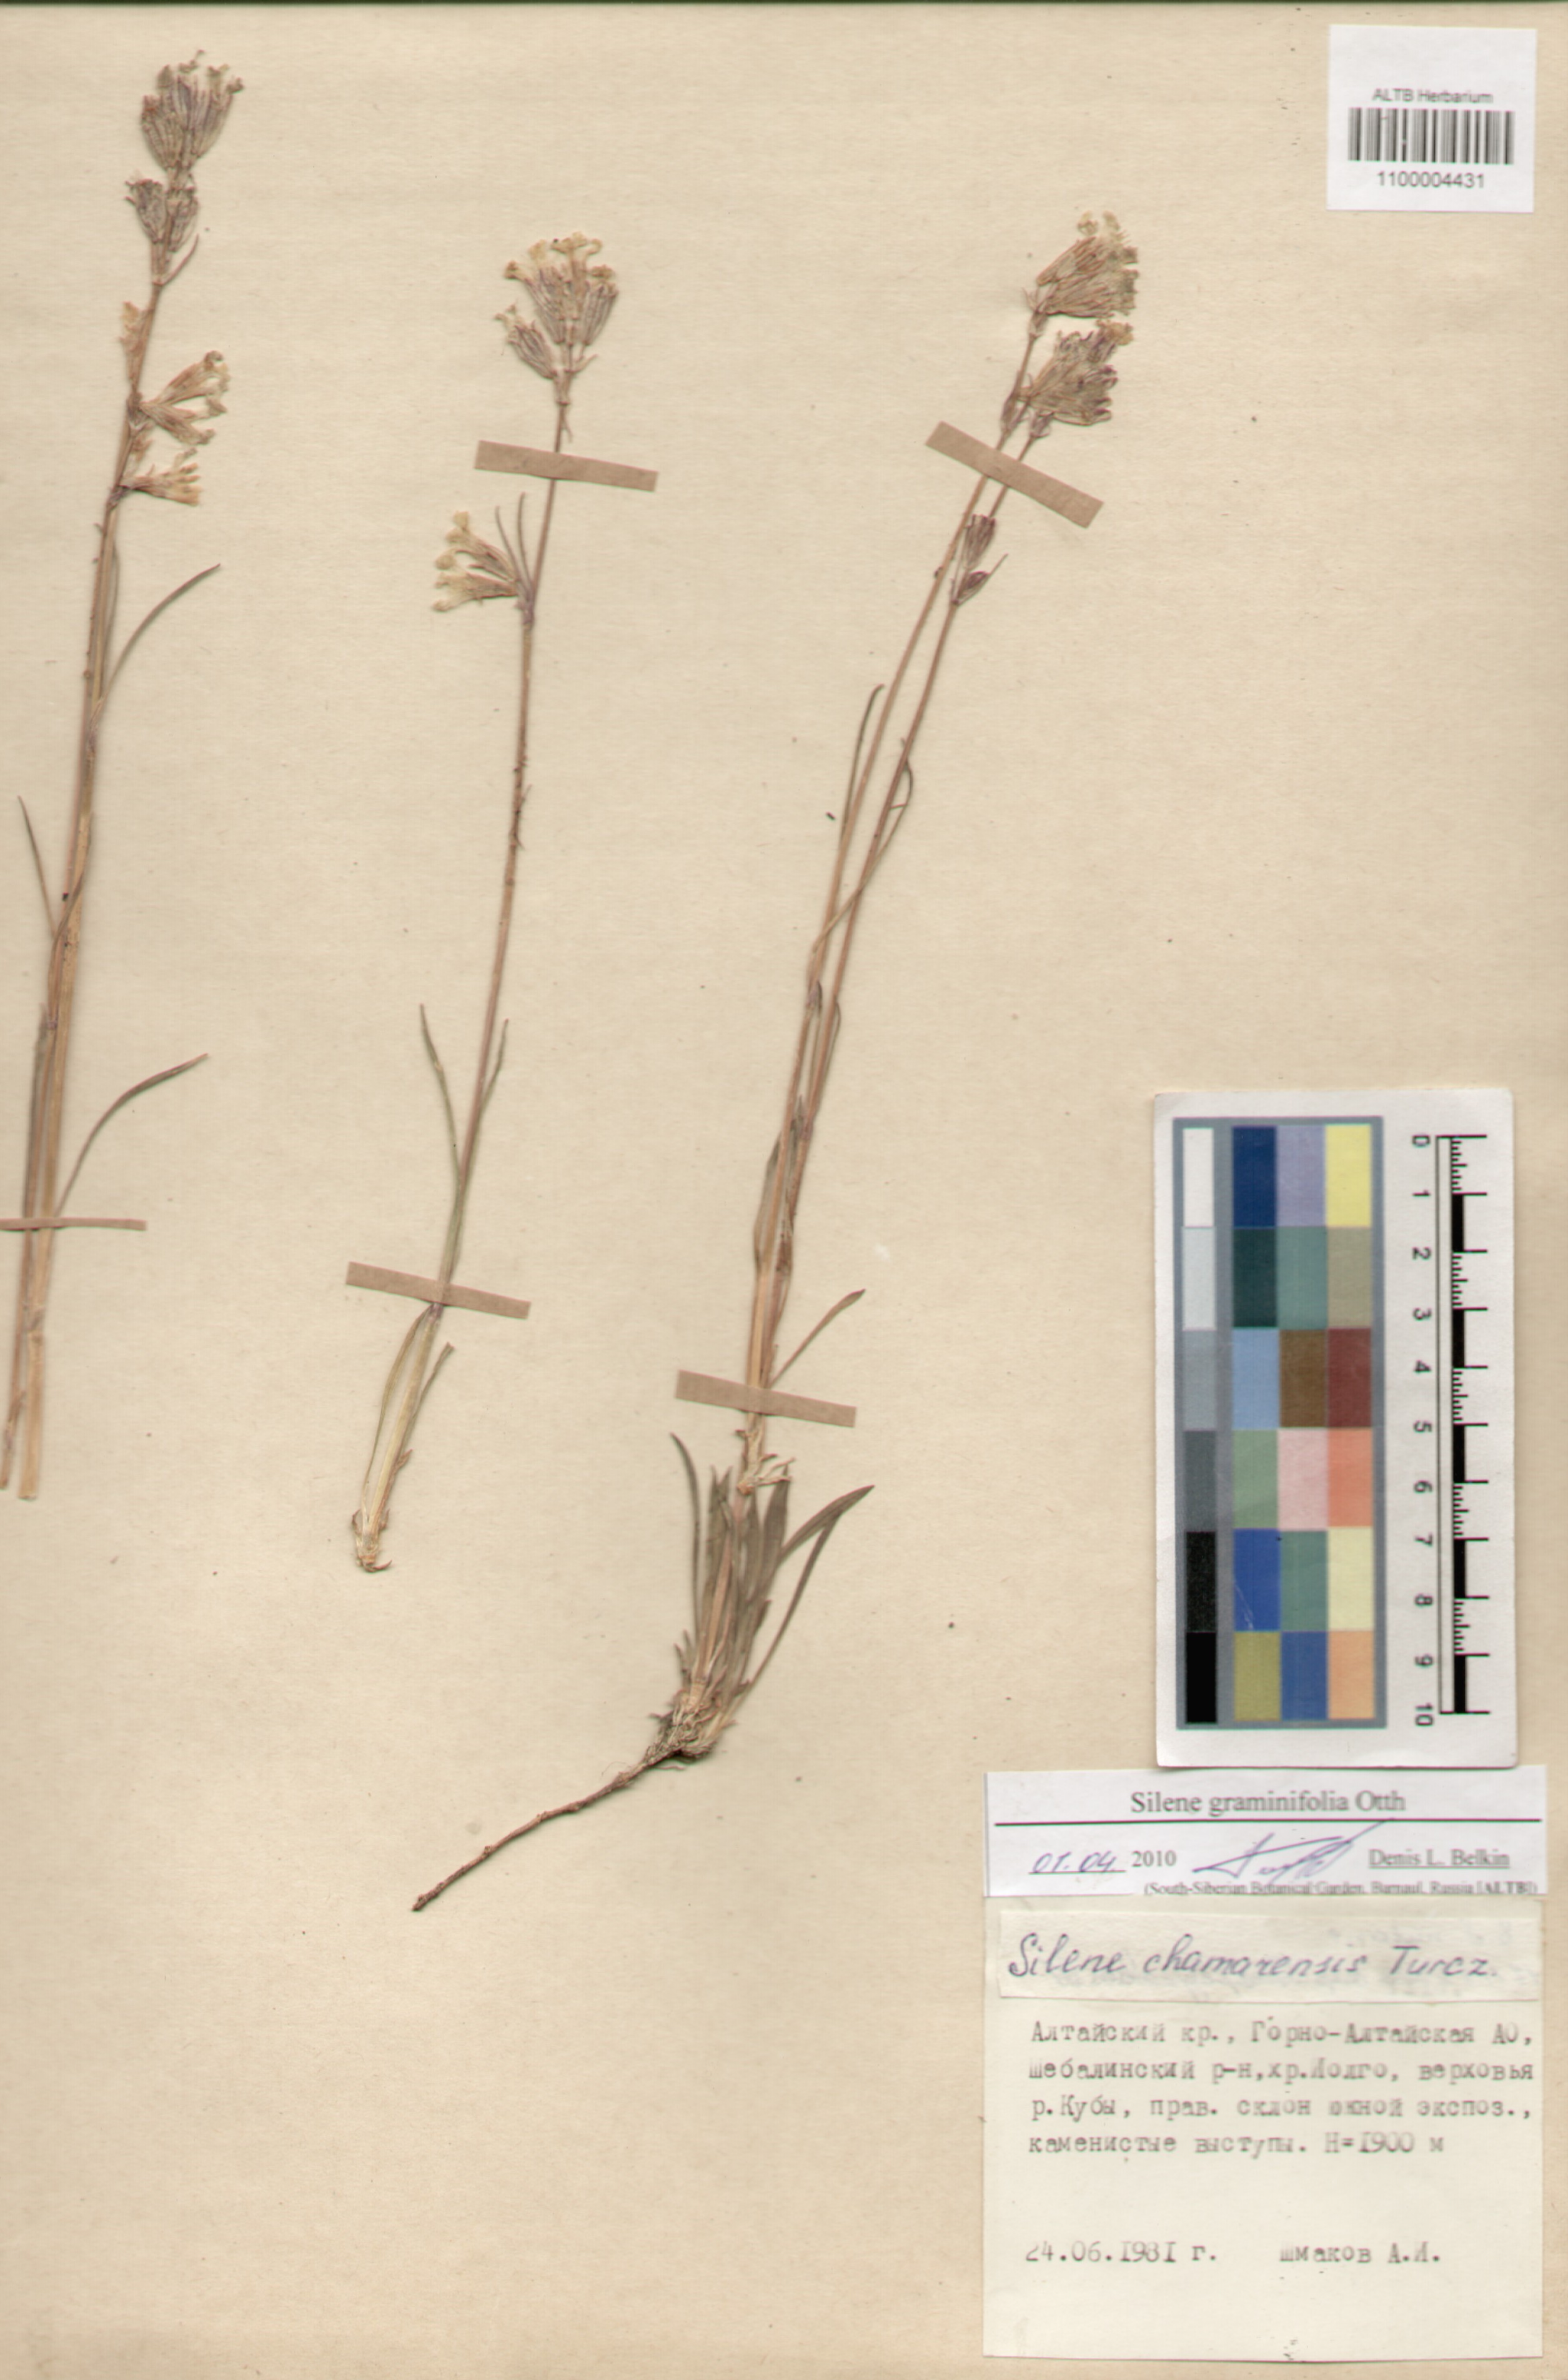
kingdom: Plantae
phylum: Tracheophyta
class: Magnoliopsida
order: Caryophyllales
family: Caryophyllaceae
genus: Silene
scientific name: Silene graminifolia
